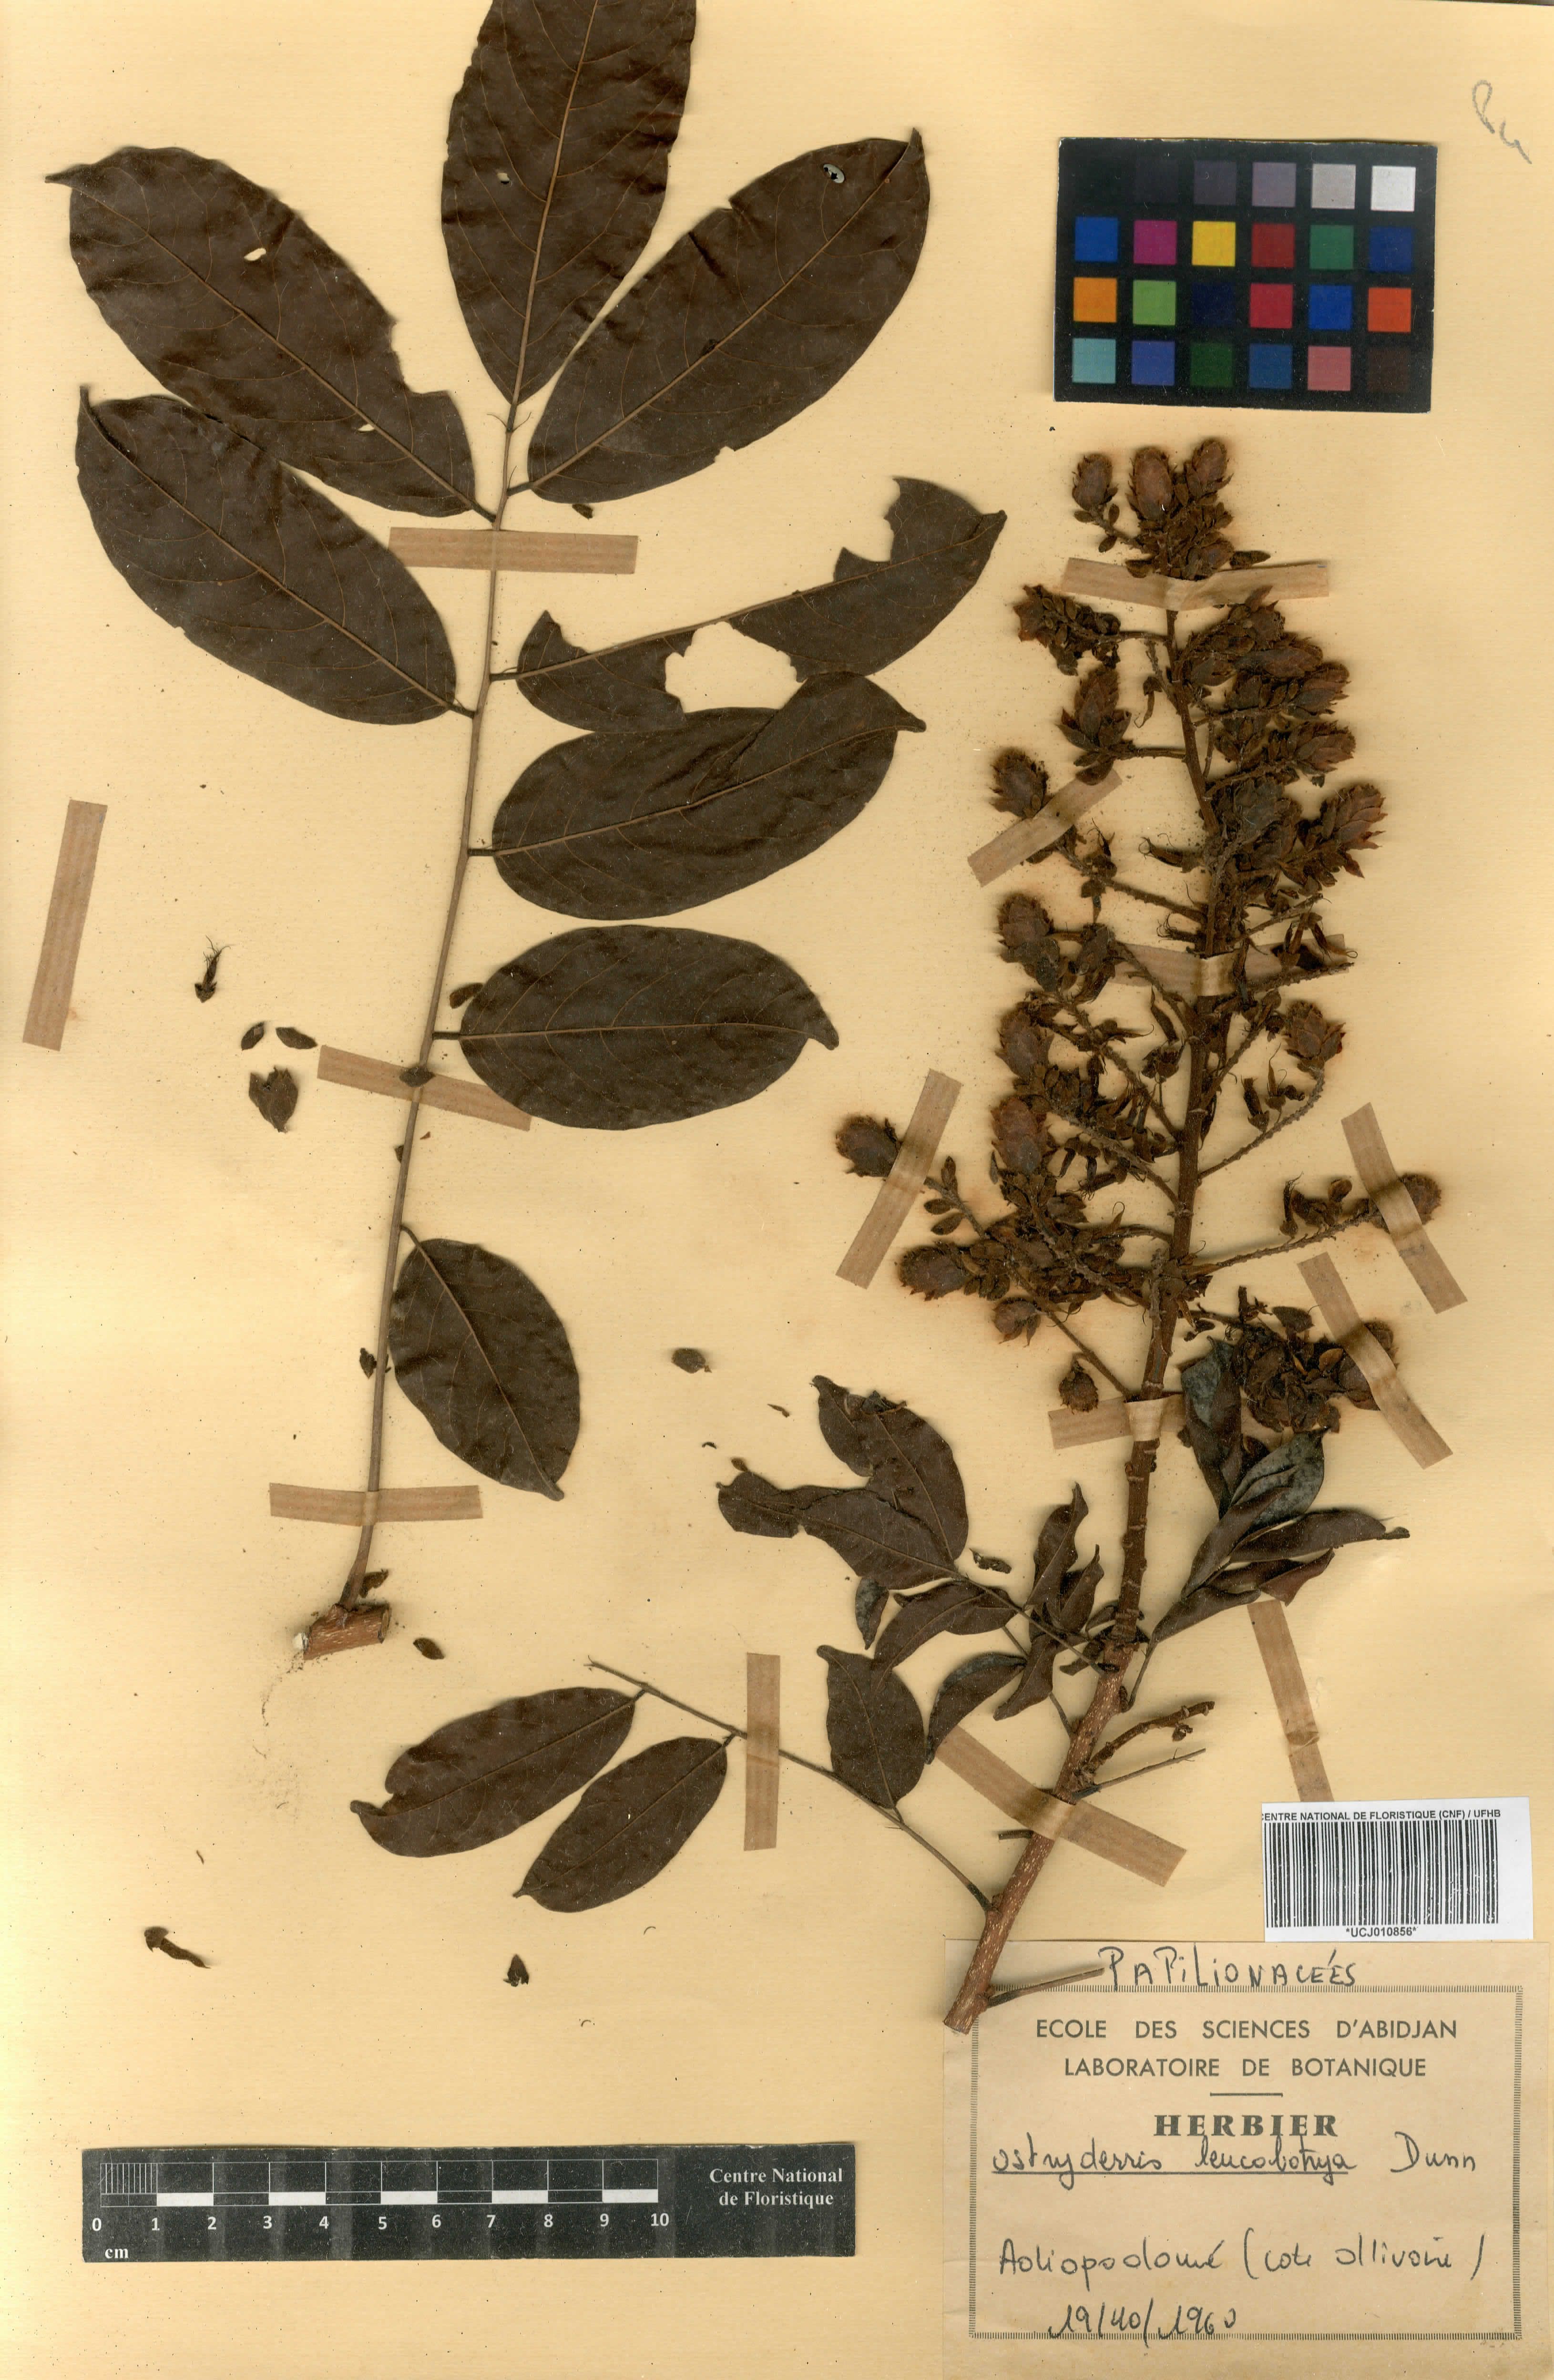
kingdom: Plantae
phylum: Tracheophyta
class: Magnoliopsida
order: Fabales
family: Fabaceae
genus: Aganope
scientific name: Aganope leucobotrya
